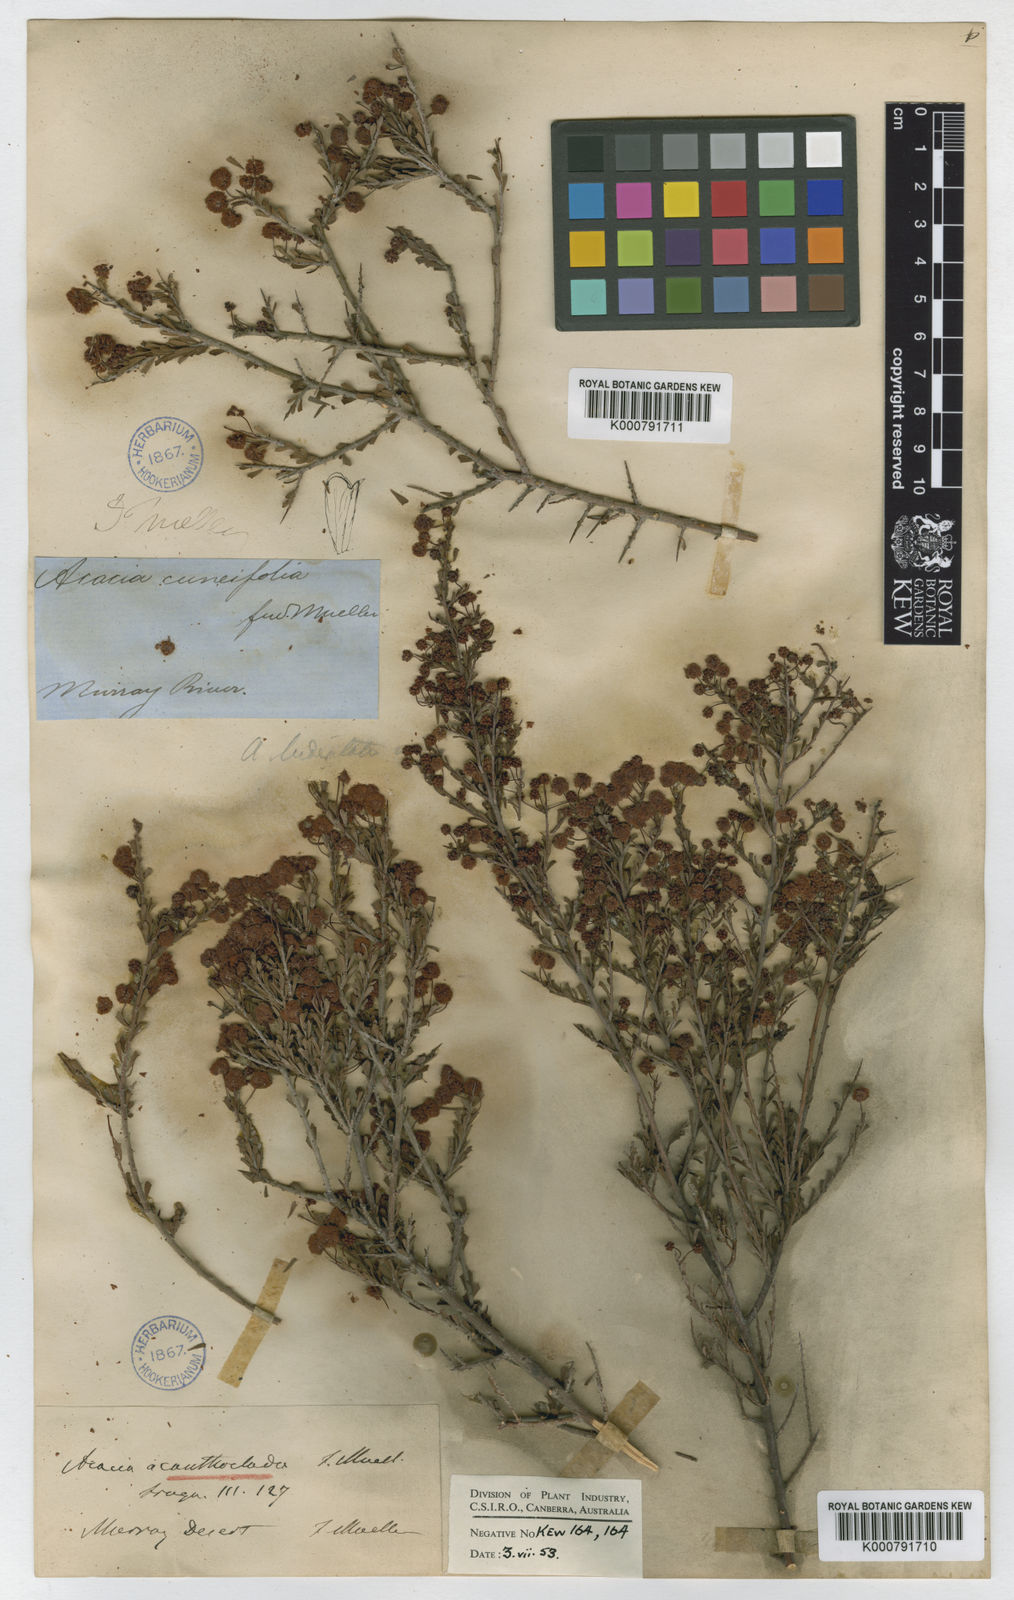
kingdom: Plantae
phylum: Tracheophyta
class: Magnoliopsida
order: Fabales
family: Fabaceae
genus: Acacia
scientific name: Acacia acanthoclada
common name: Harrow wattle
